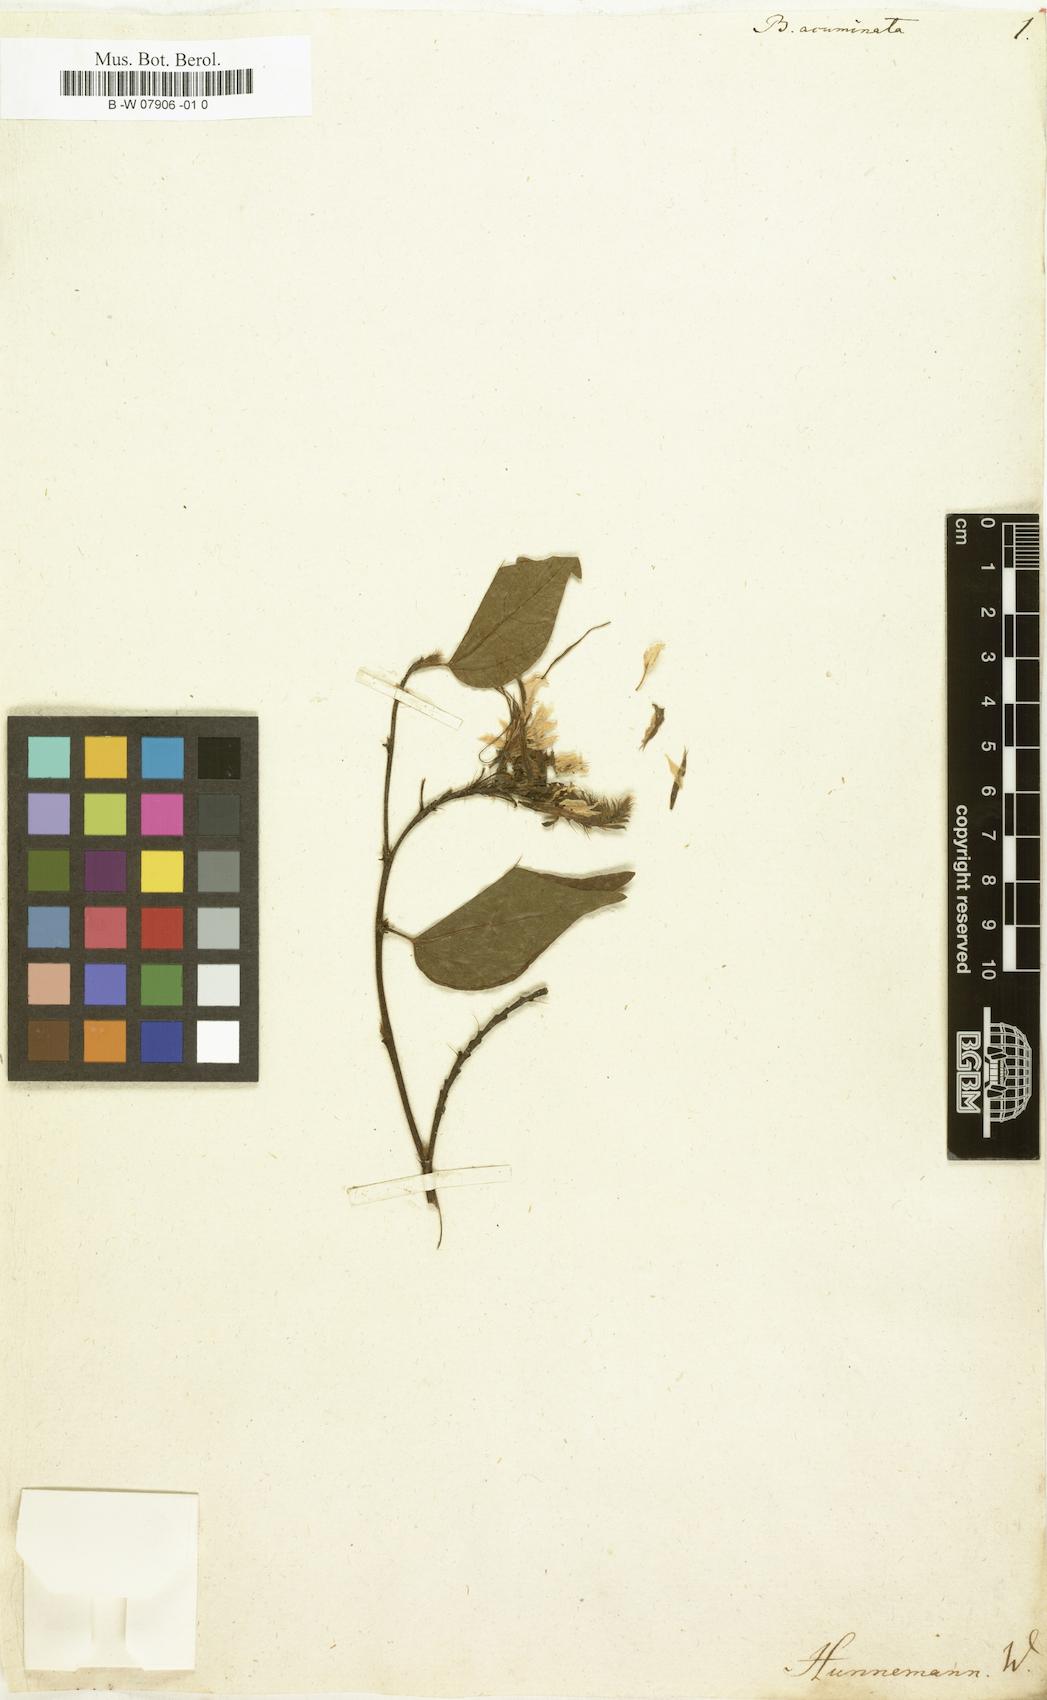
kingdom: Plantae
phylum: Tracheophyta
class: Magnoliopsida
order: Fabales
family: Fabaceae
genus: Bauhinia
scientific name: Bauhinia acuminata
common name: Dwarf white bauhinia
